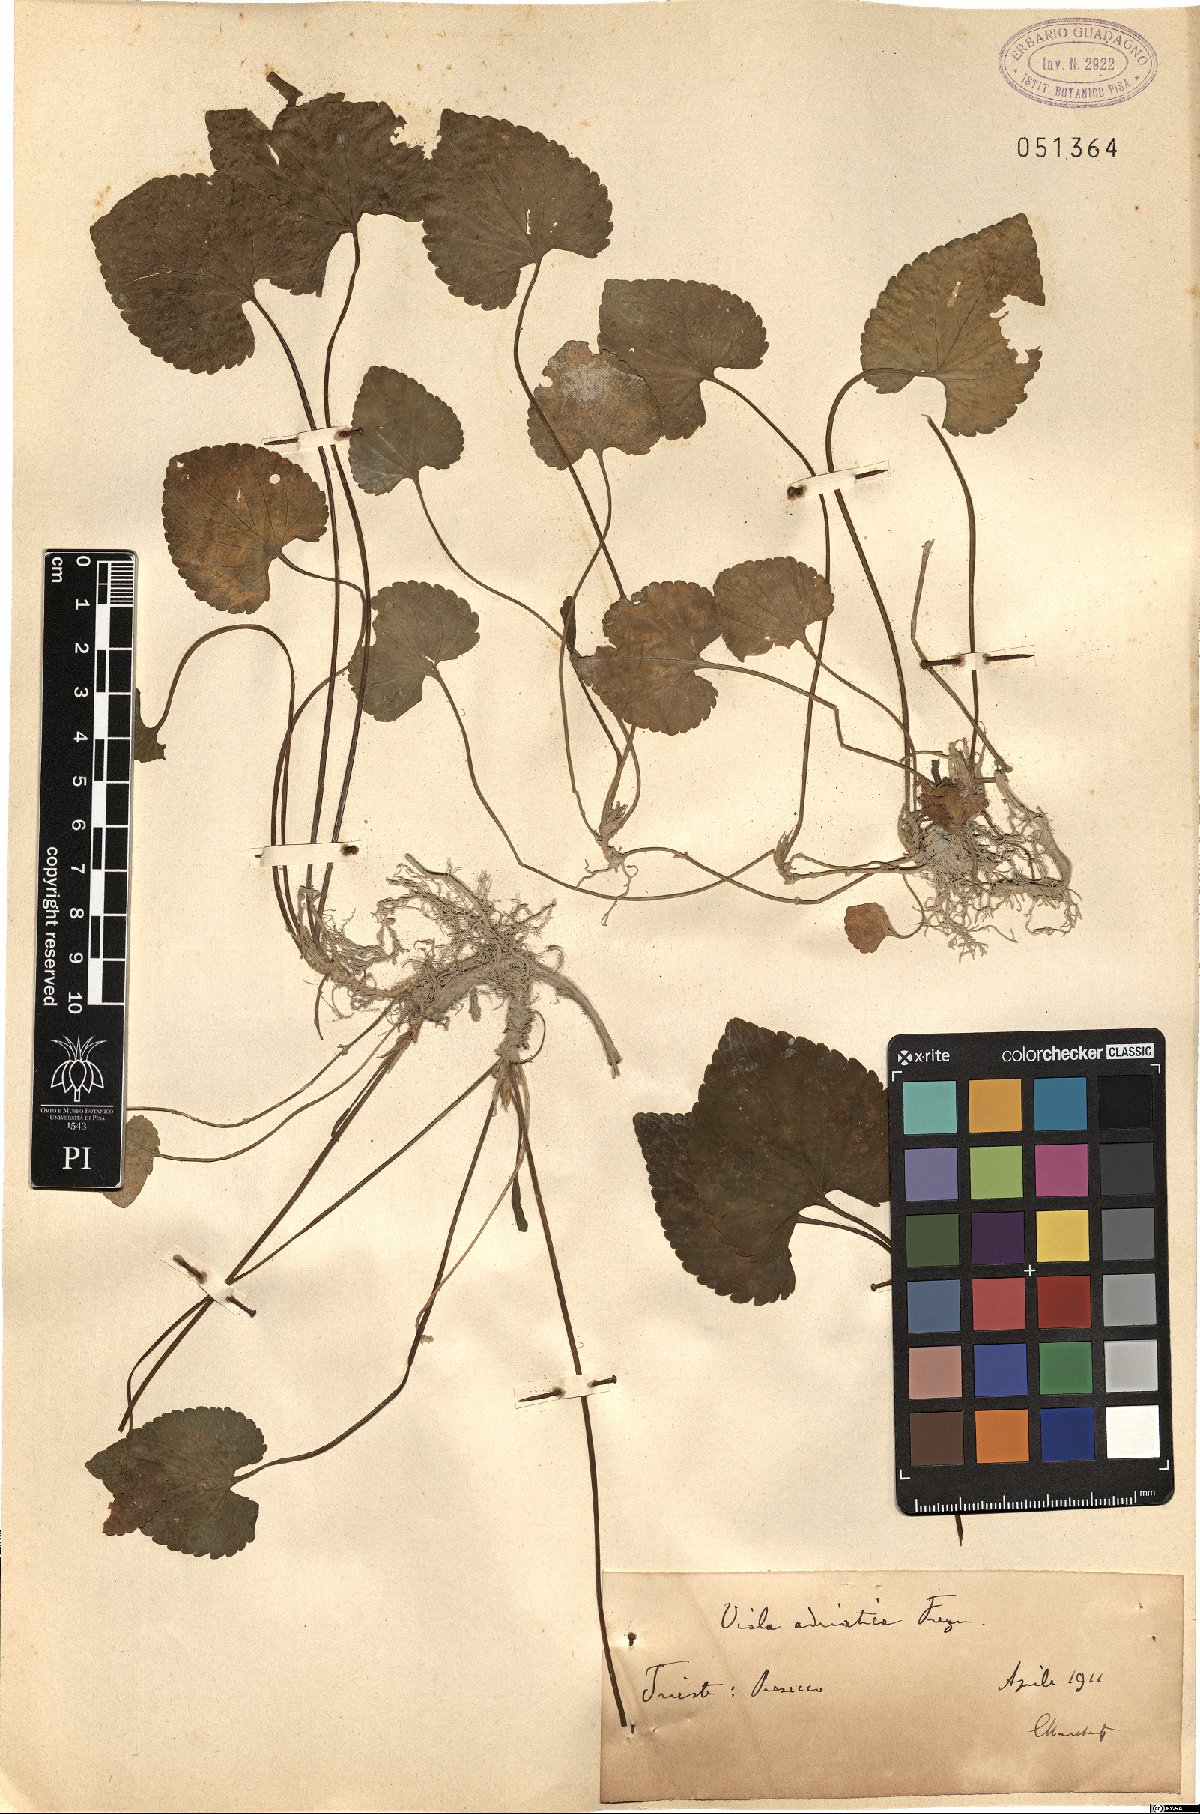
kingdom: Plantae
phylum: Tracheophyta
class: Magnoliopsida
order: Malpighiales
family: Violaceae
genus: Viola
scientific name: Viola suavis
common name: Russian violet
